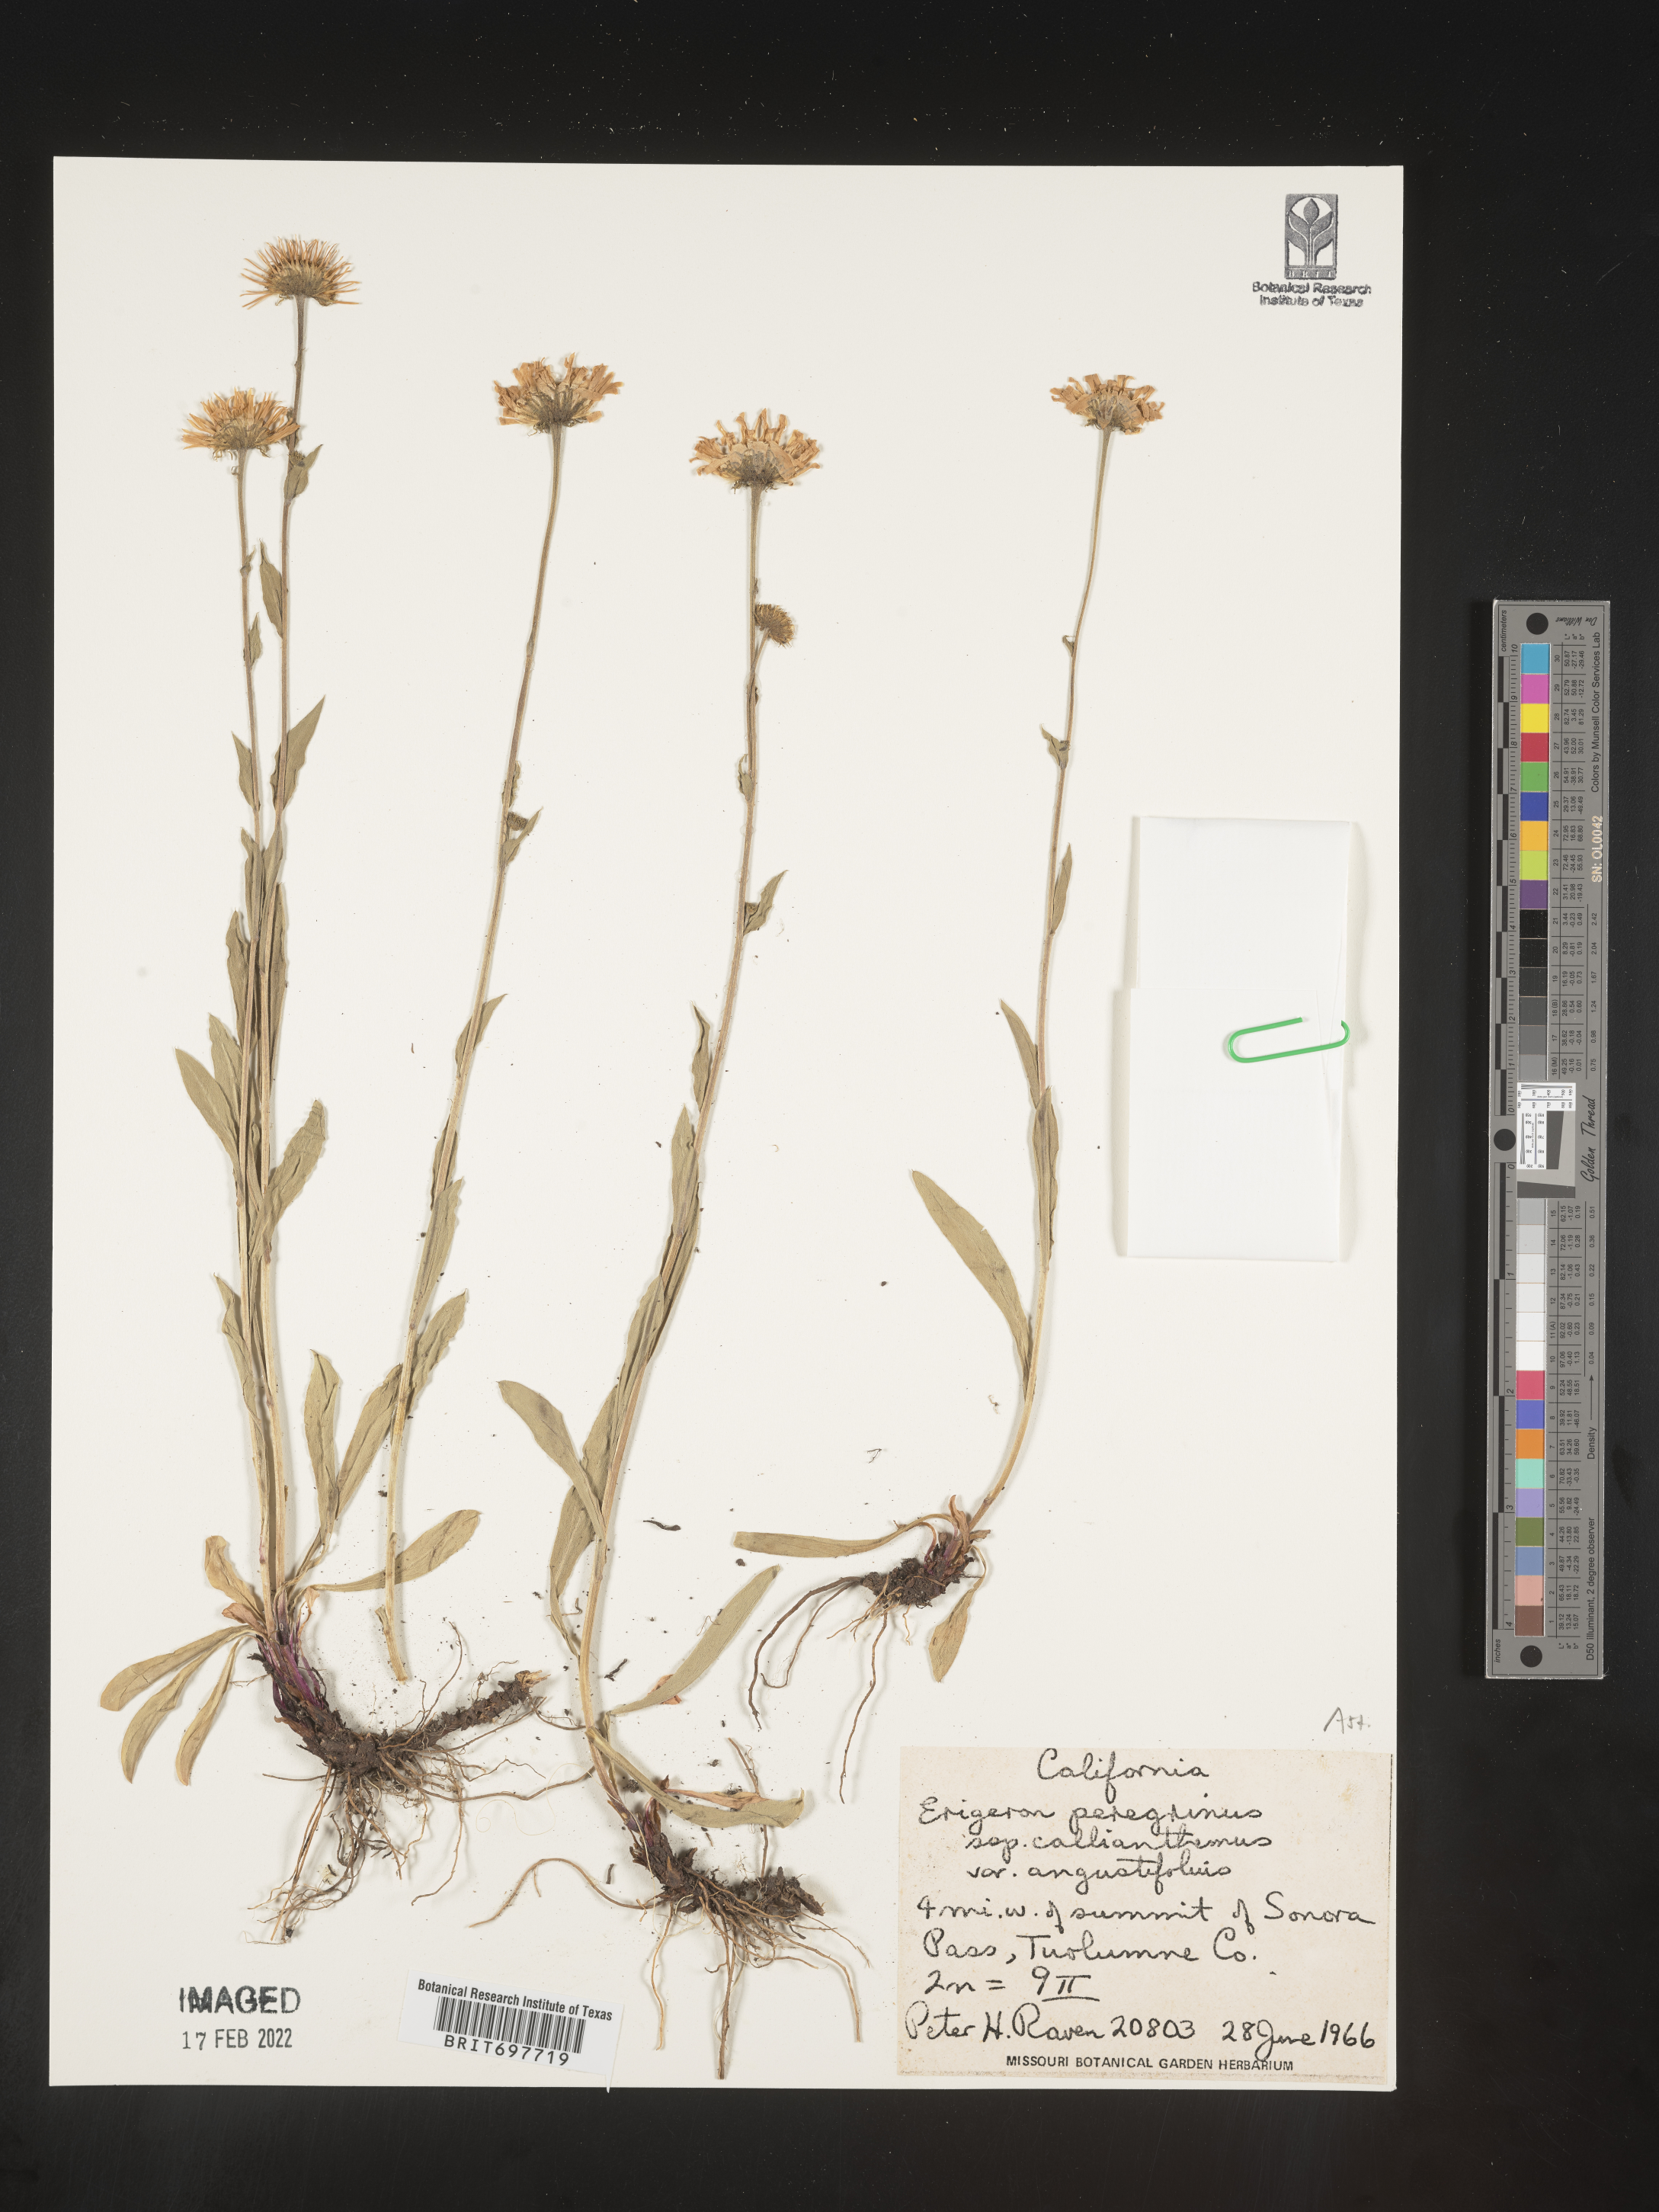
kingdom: Plantae
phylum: Tracheophyta
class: Magnoliopsida
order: Asterales
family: Asteraceae
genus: Erigeron
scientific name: Erigeron glacialis
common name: Subalpine fleabane
